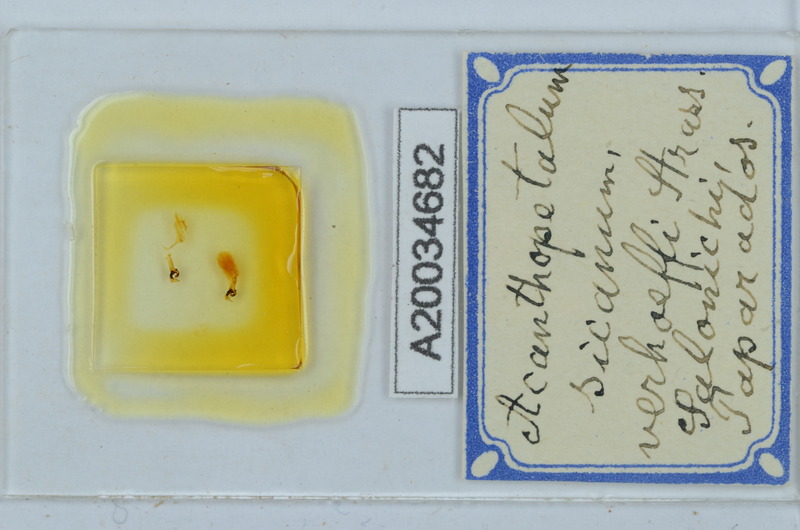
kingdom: Animalia
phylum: Arthropoda
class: Diplopoda
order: Callipodida
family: Schizopetalidae
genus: Acanthopetalum
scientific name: Acanthopetalum richii
